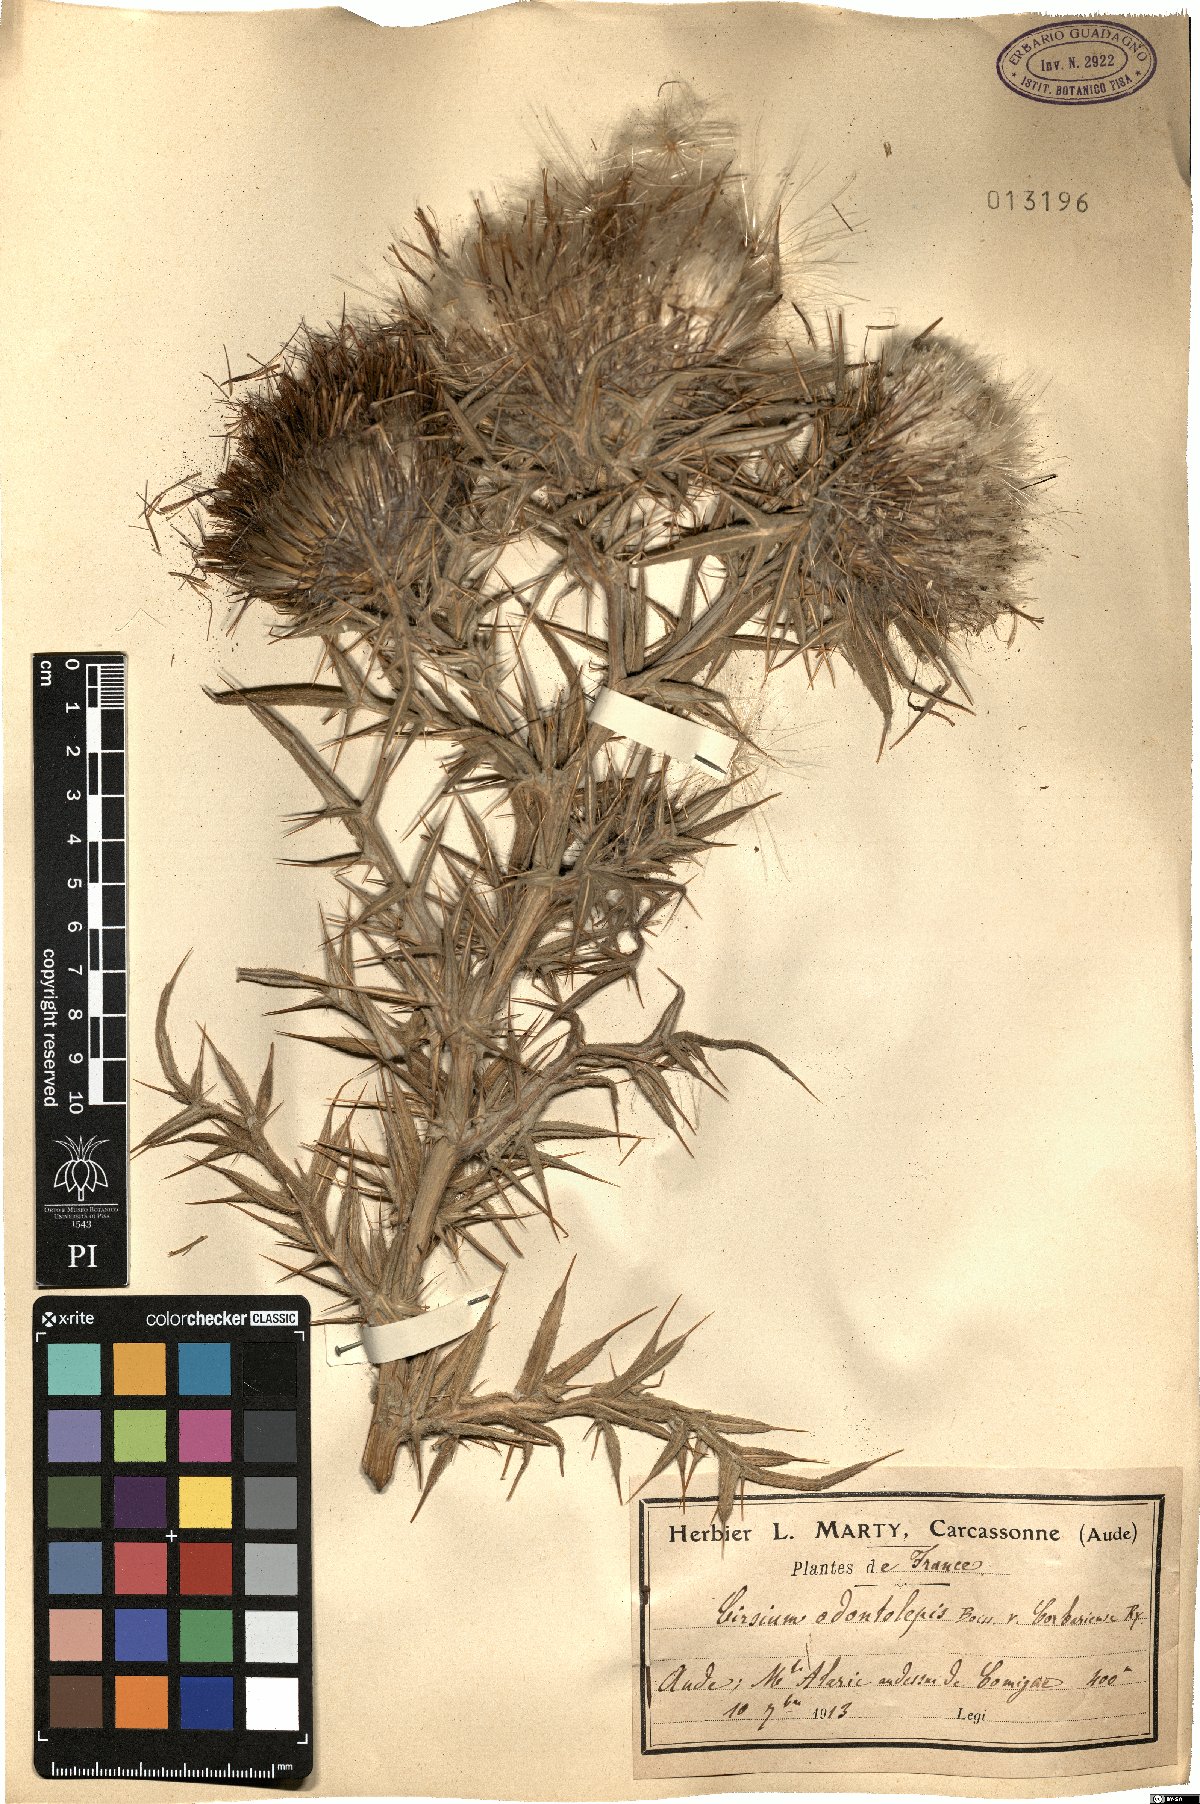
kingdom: Plantae
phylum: Tracheophyta
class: Magnoliopsida
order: Asterales
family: Asteraceae
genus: Lophiolepis
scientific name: Lophiolepis odontolepis
